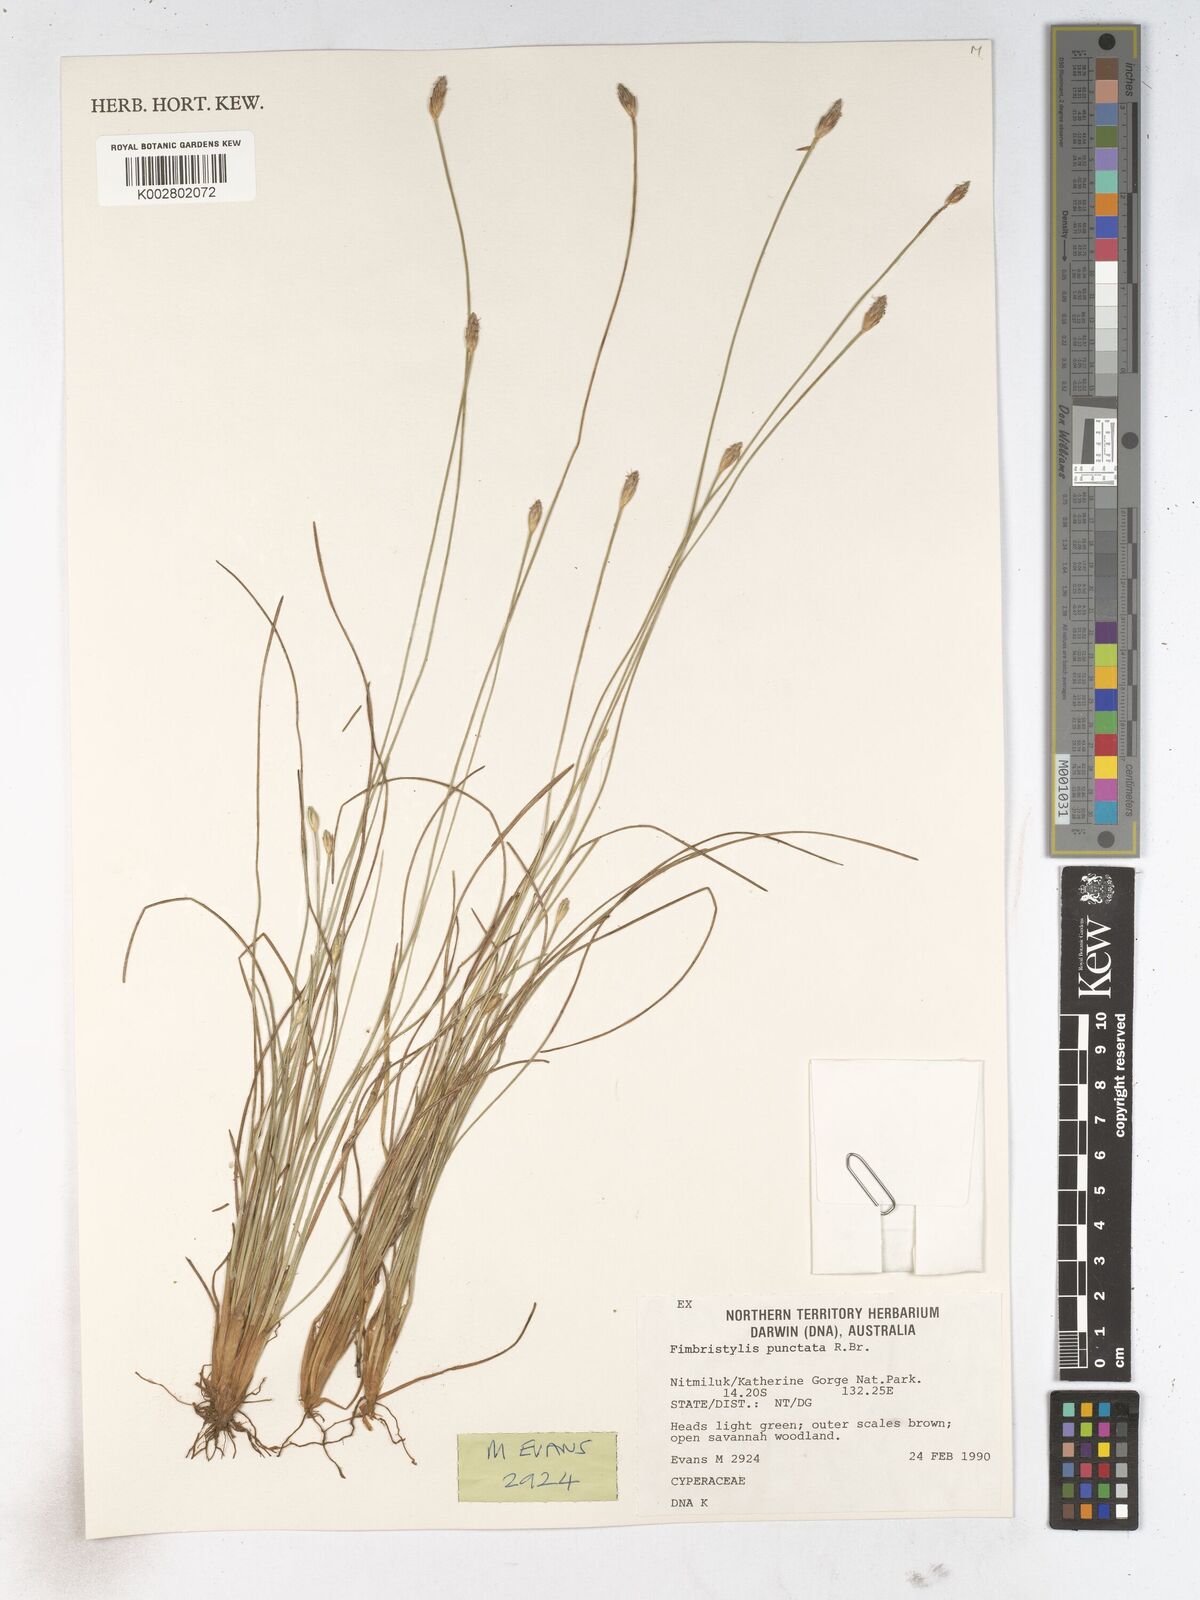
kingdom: Plantae
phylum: Tracheophyta
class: Liliopsida
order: Poales
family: Cyperaceae
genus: Fimbristylis
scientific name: Fimbristylis punctata
